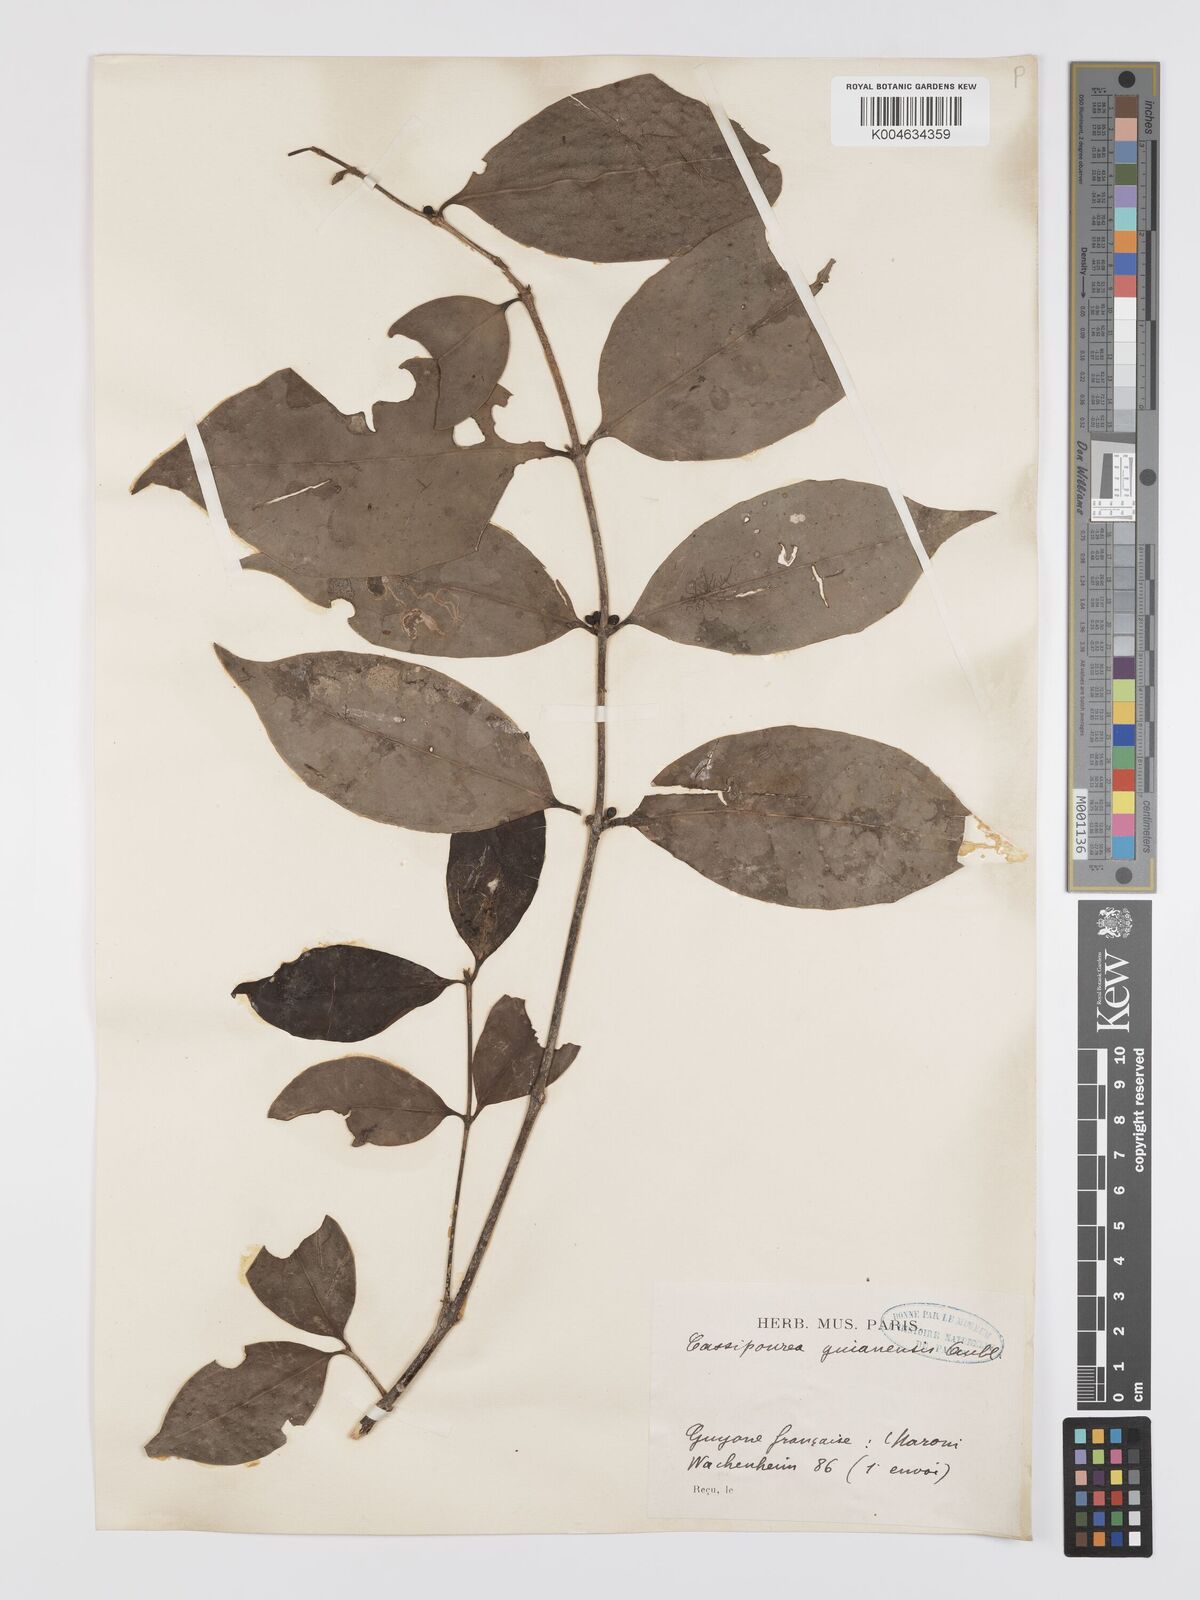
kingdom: Plantae
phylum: Tracheophyta
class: Magnoliopsida
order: Malpighiales
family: Rhizophoraceae
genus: Cassipourea
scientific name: Cassipourea guianensis
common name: Bastard waterwood
